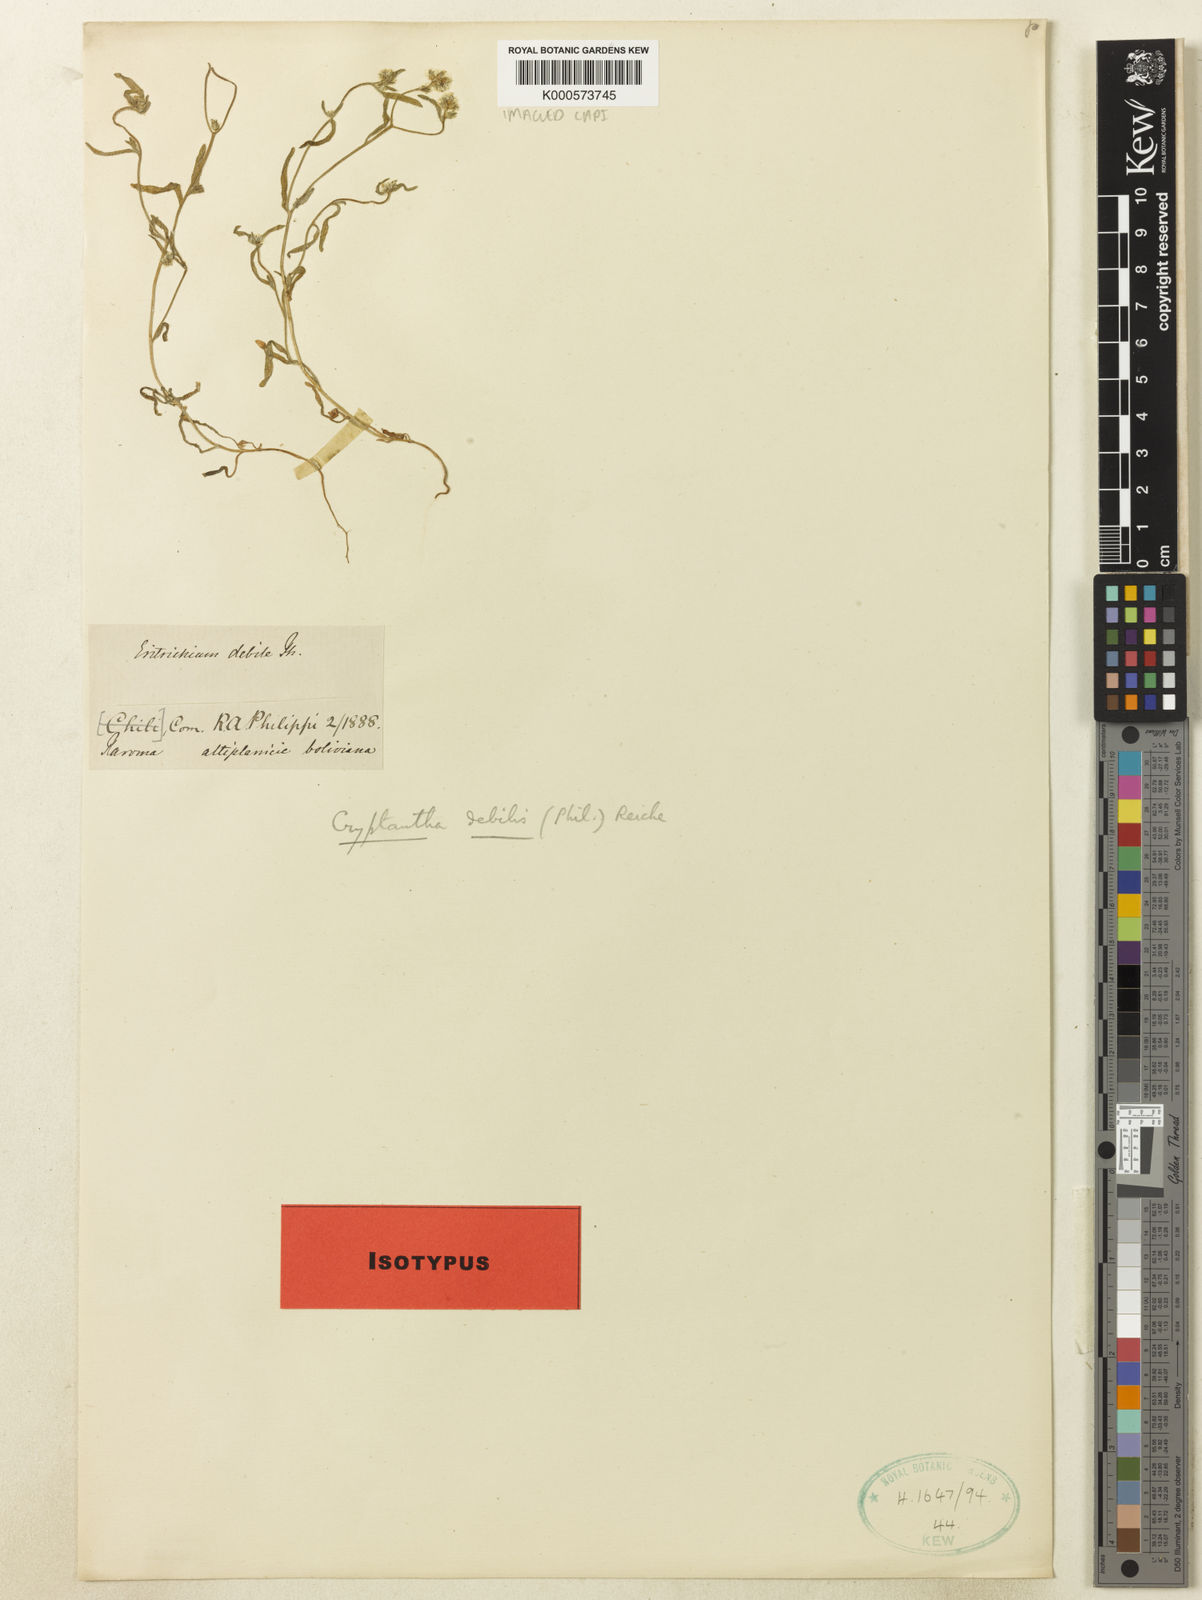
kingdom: Plantae
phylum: Tracheophyta
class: Magnoliopsida
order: Boraginales
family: Boraginaceae
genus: Cryptantha
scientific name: Cryptantha diffusa
